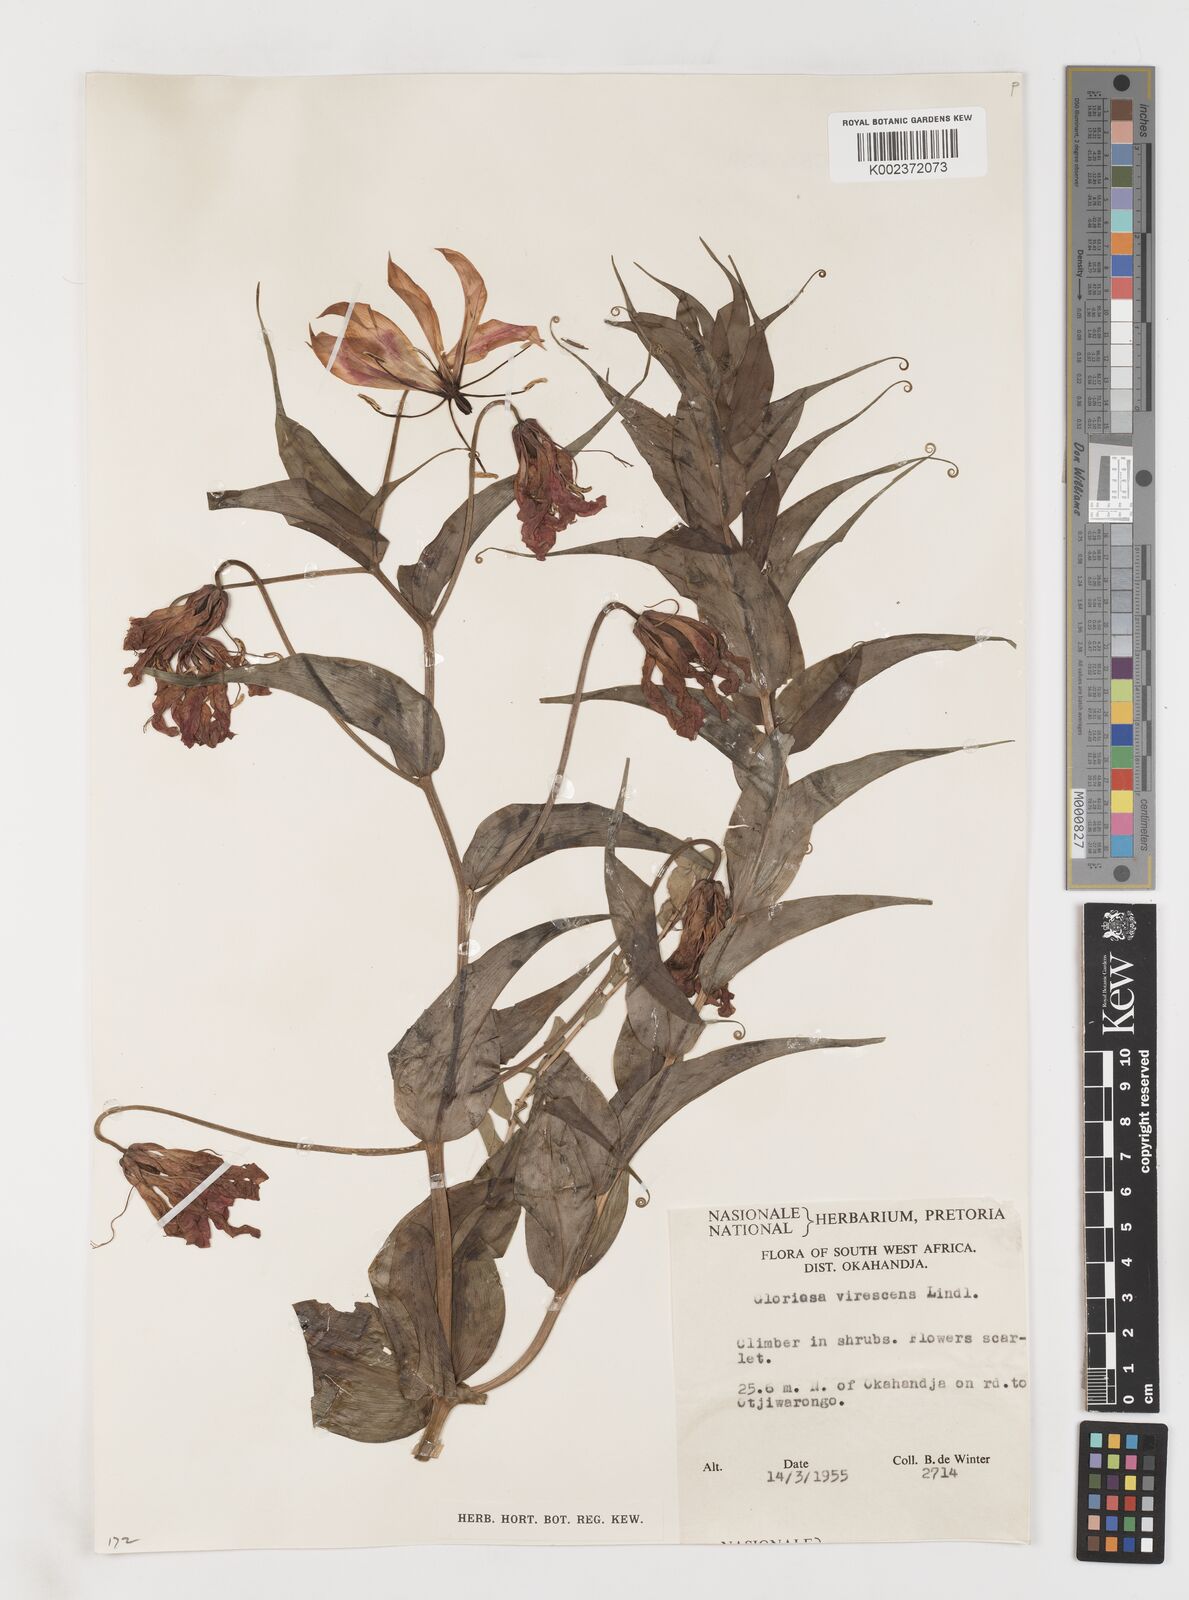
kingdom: Plantae
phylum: Tracheophyta
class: Liliopsida
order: Liliales
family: Colchicaceae
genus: Gloriosa
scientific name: Gloriosa simplex
